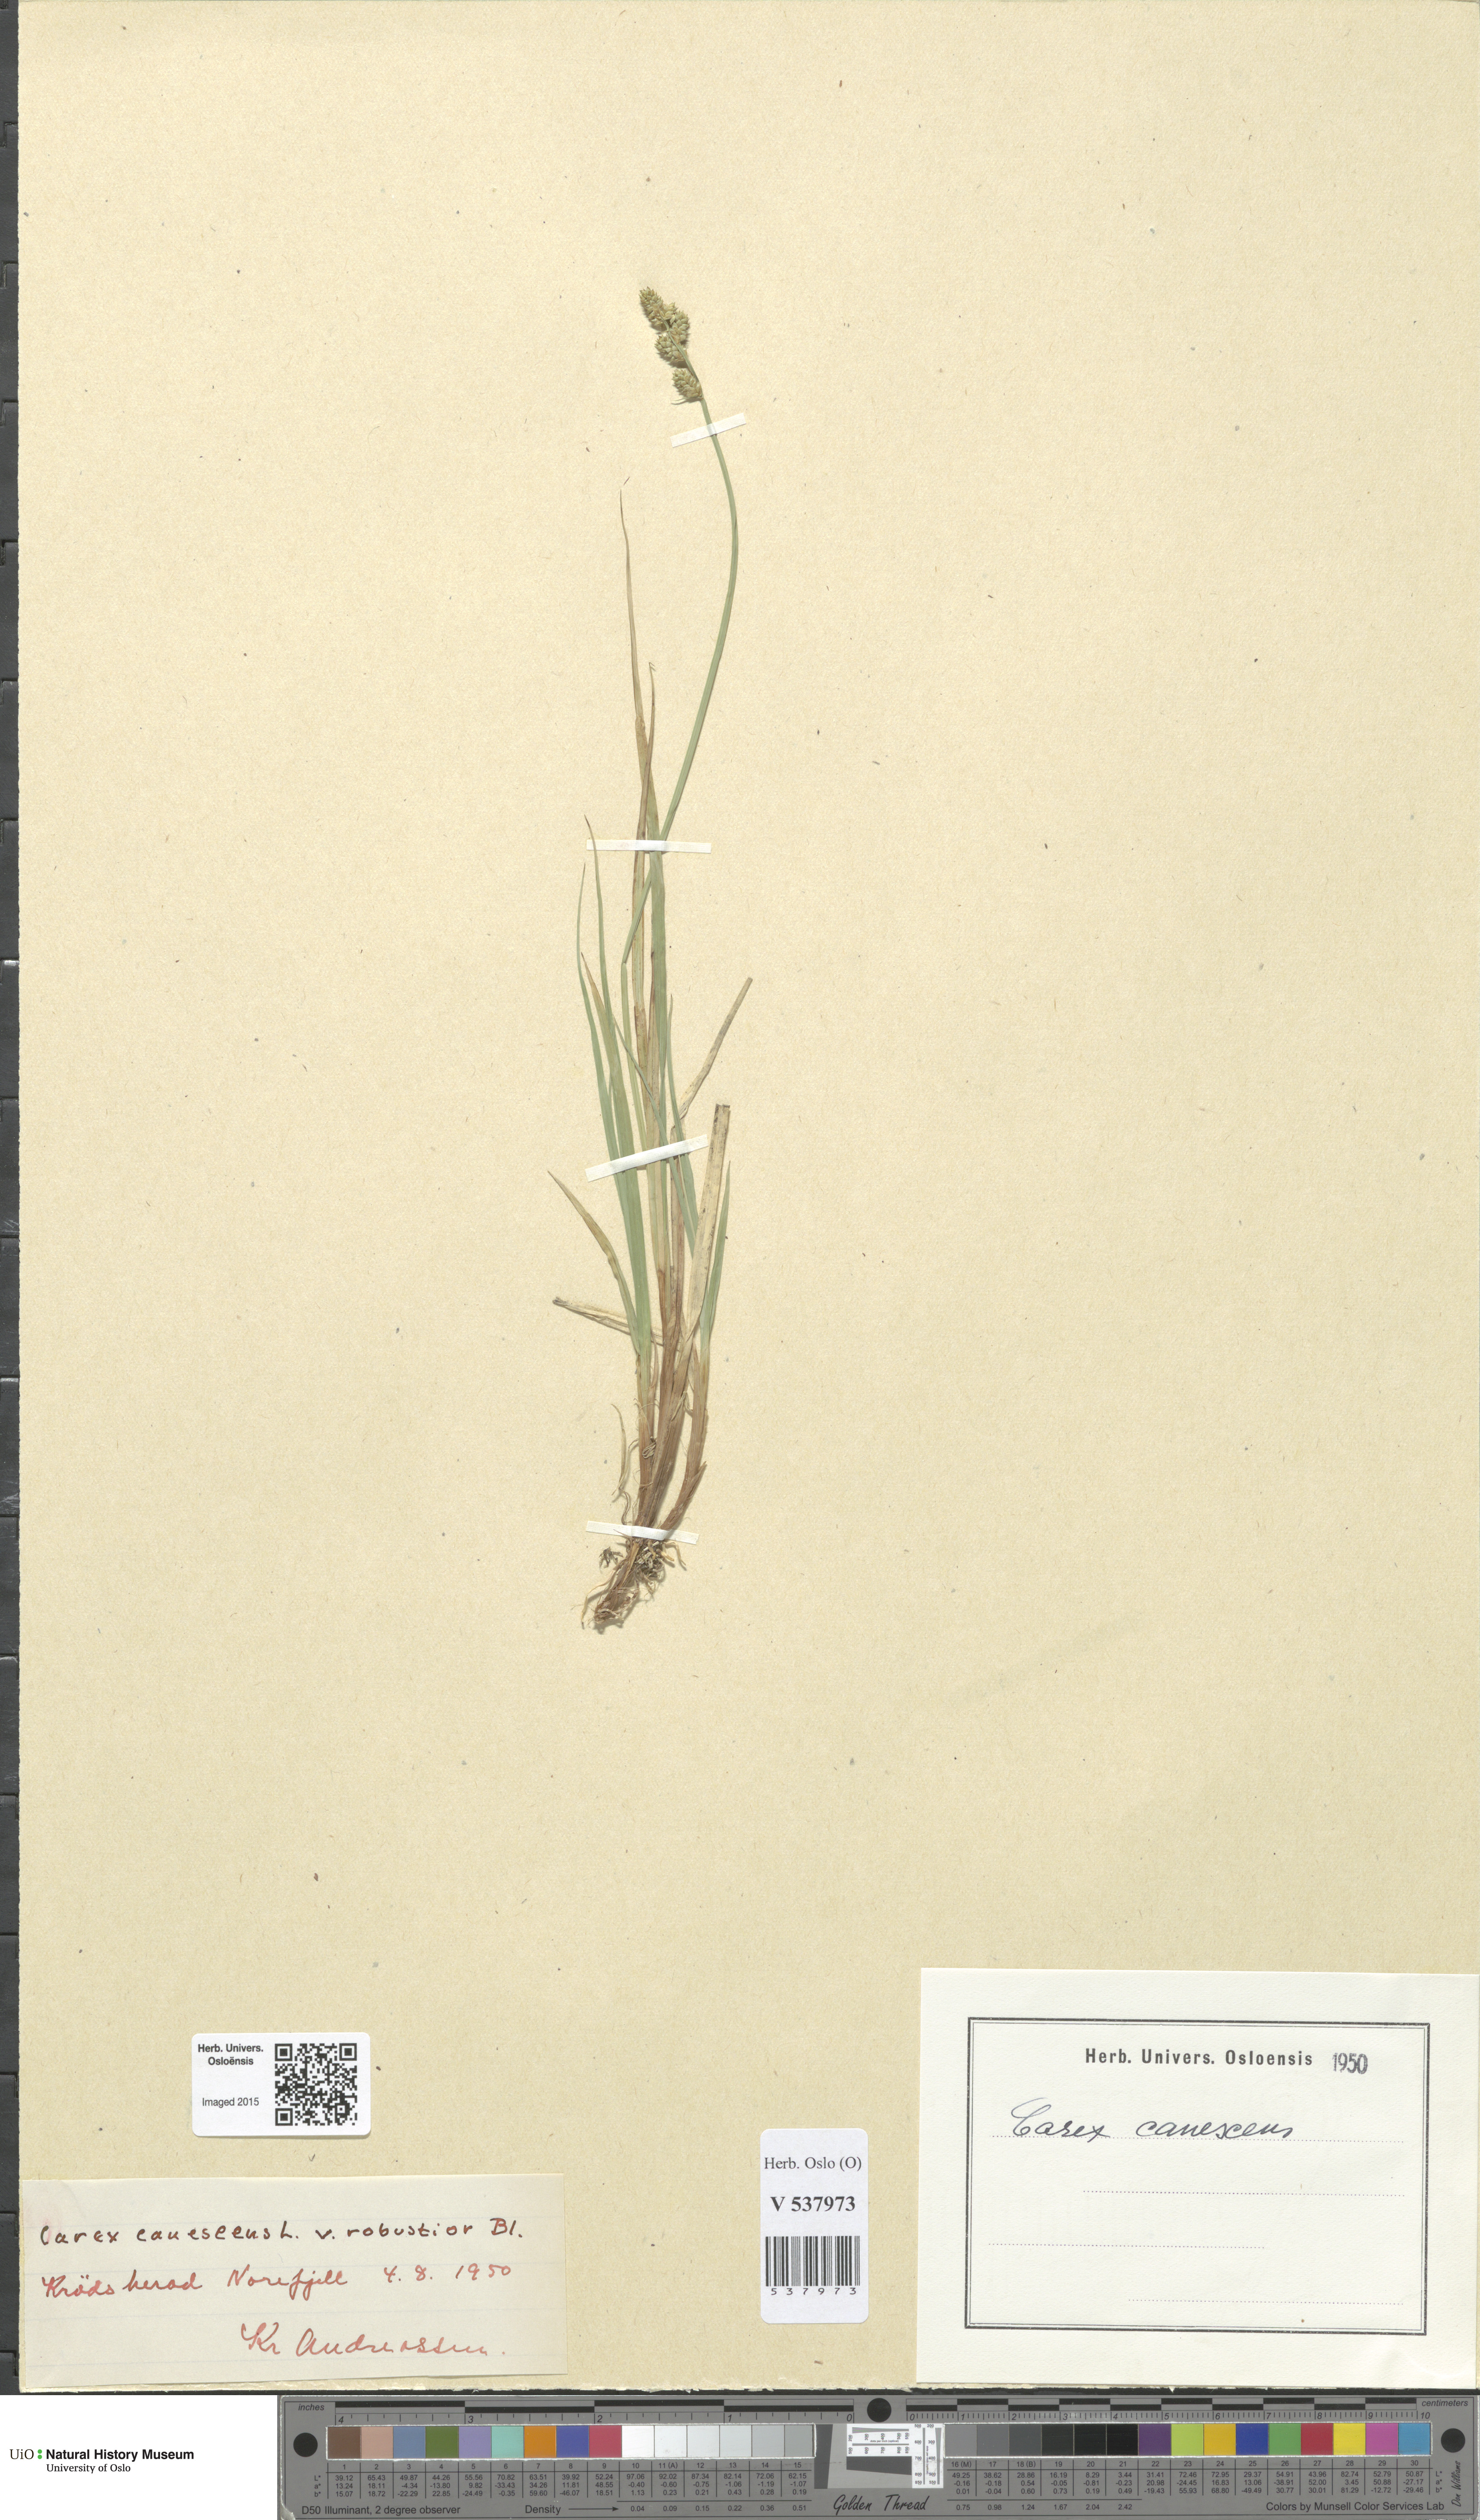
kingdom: Plantae
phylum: Tracheophyta
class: Liliopsida
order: Poales
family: Cyperaceae
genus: Carex
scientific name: Carex canescens
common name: White sedge
